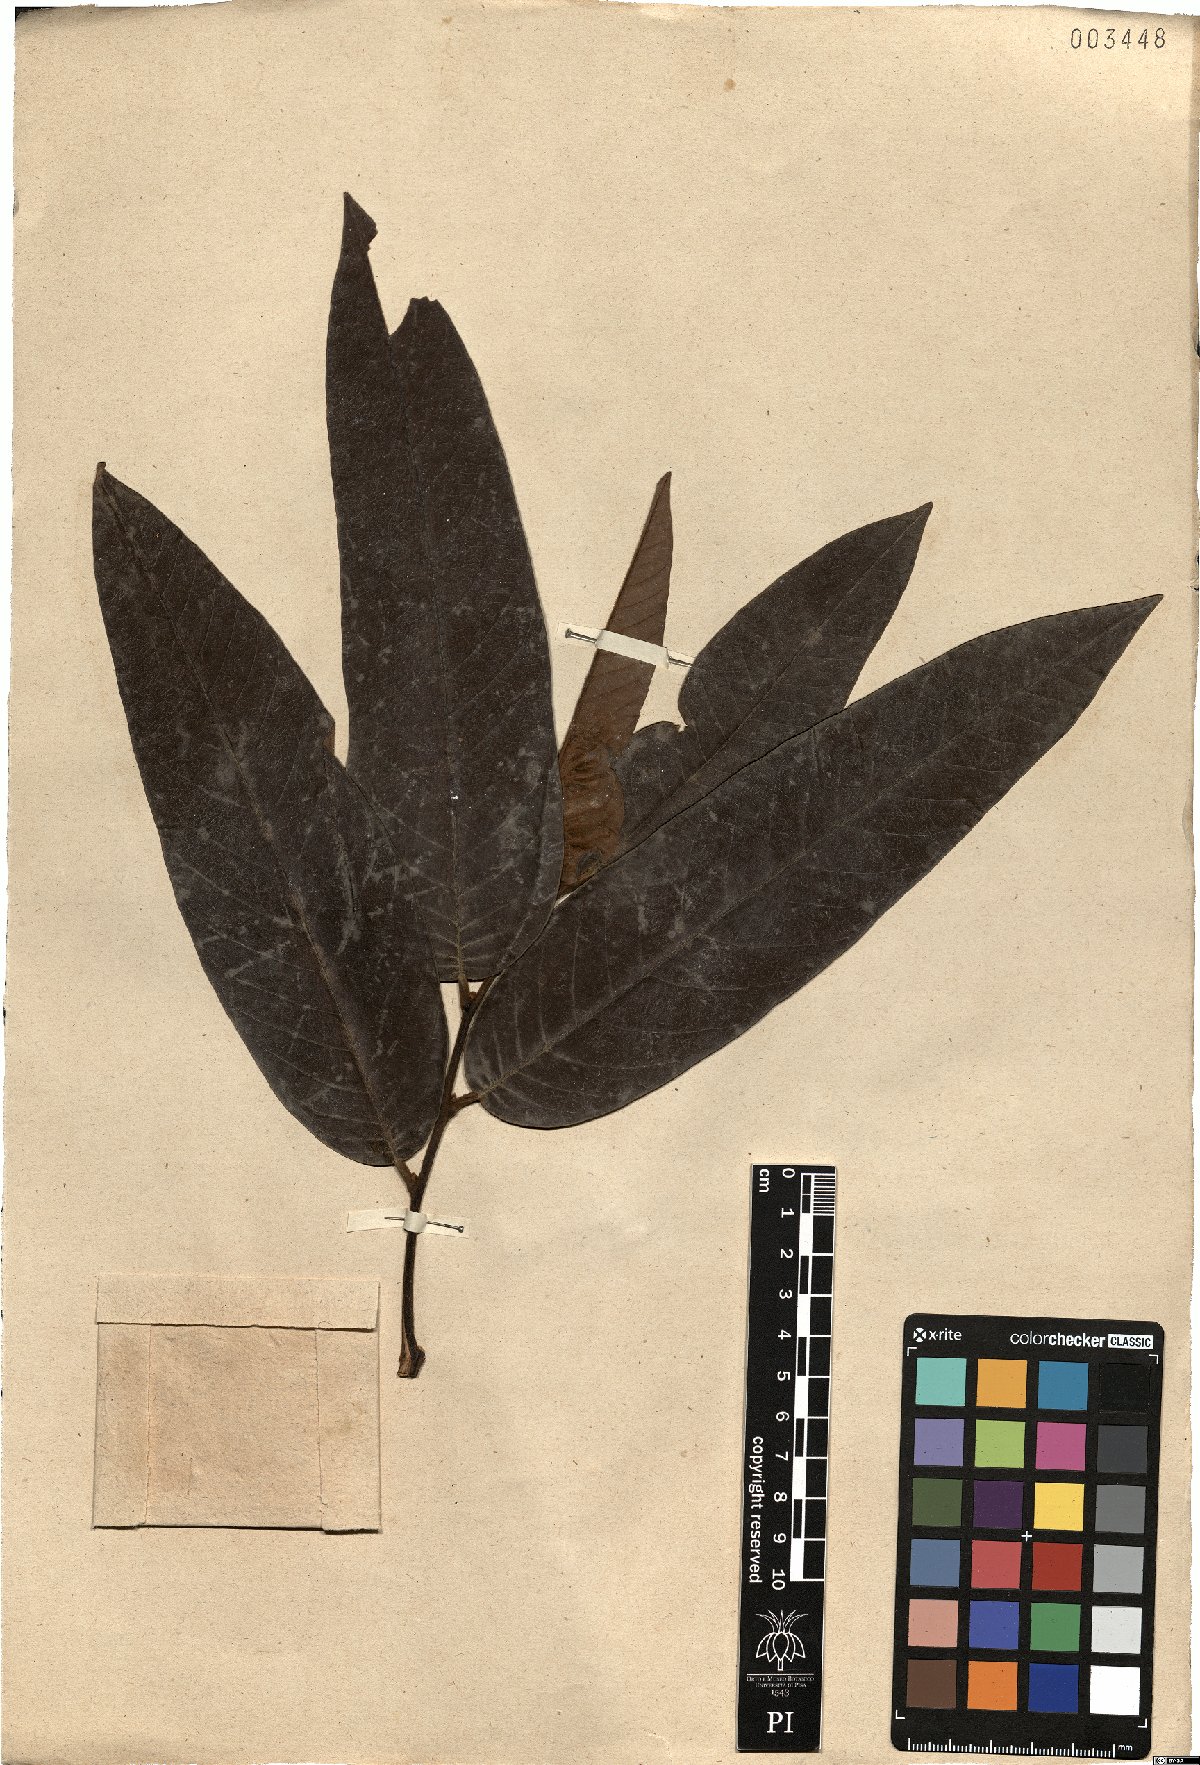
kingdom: Plantae
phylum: Tracheophyta
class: Magnoliopsida
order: Magnoliales
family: Annonaceae
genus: Annona
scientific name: Annona dolabripetala
